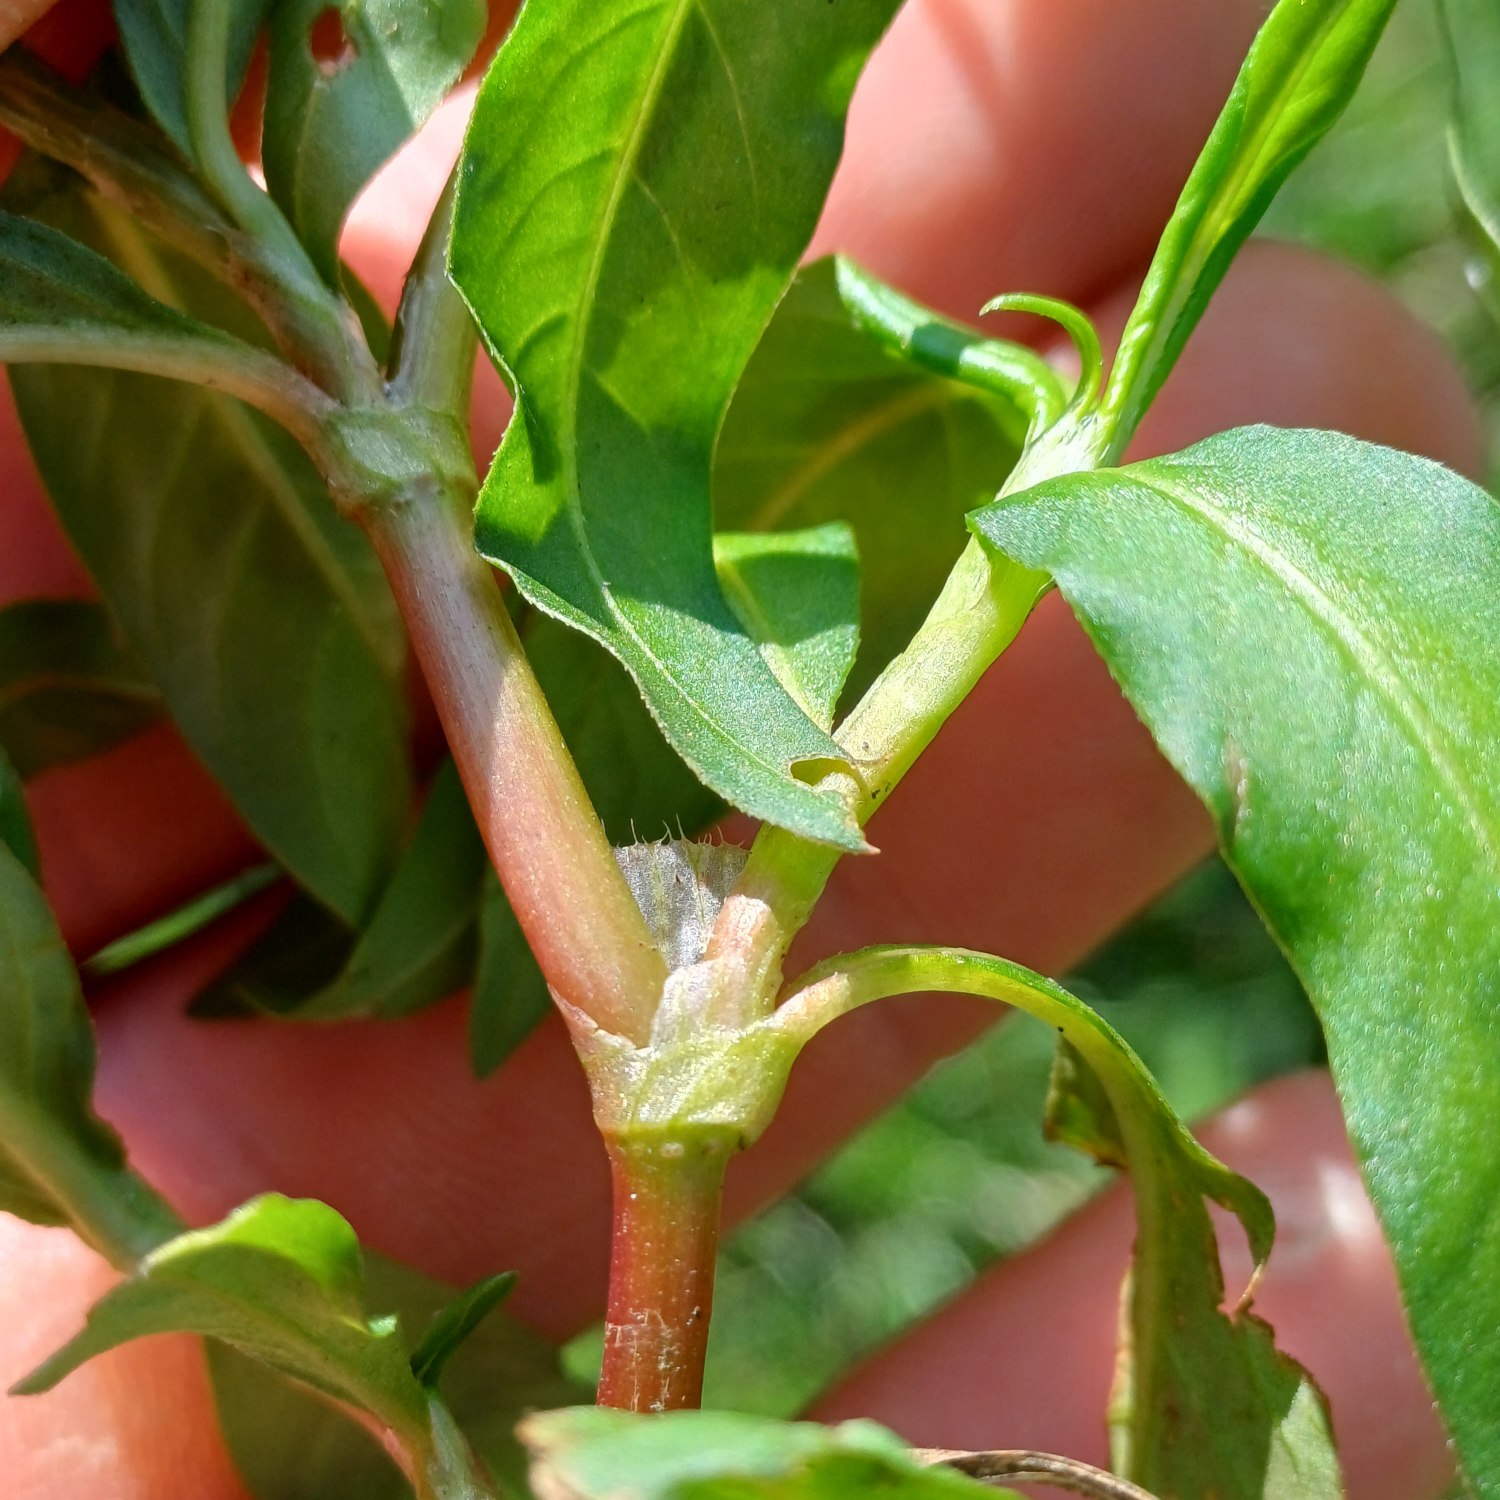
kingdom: Plantae
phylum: Tracheophyta
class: Magnoliopsida
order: Caryophyllales
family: Polygonaceae
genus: Persicaria
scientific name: Persicaria maculosa
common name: Fersken-pileurt
